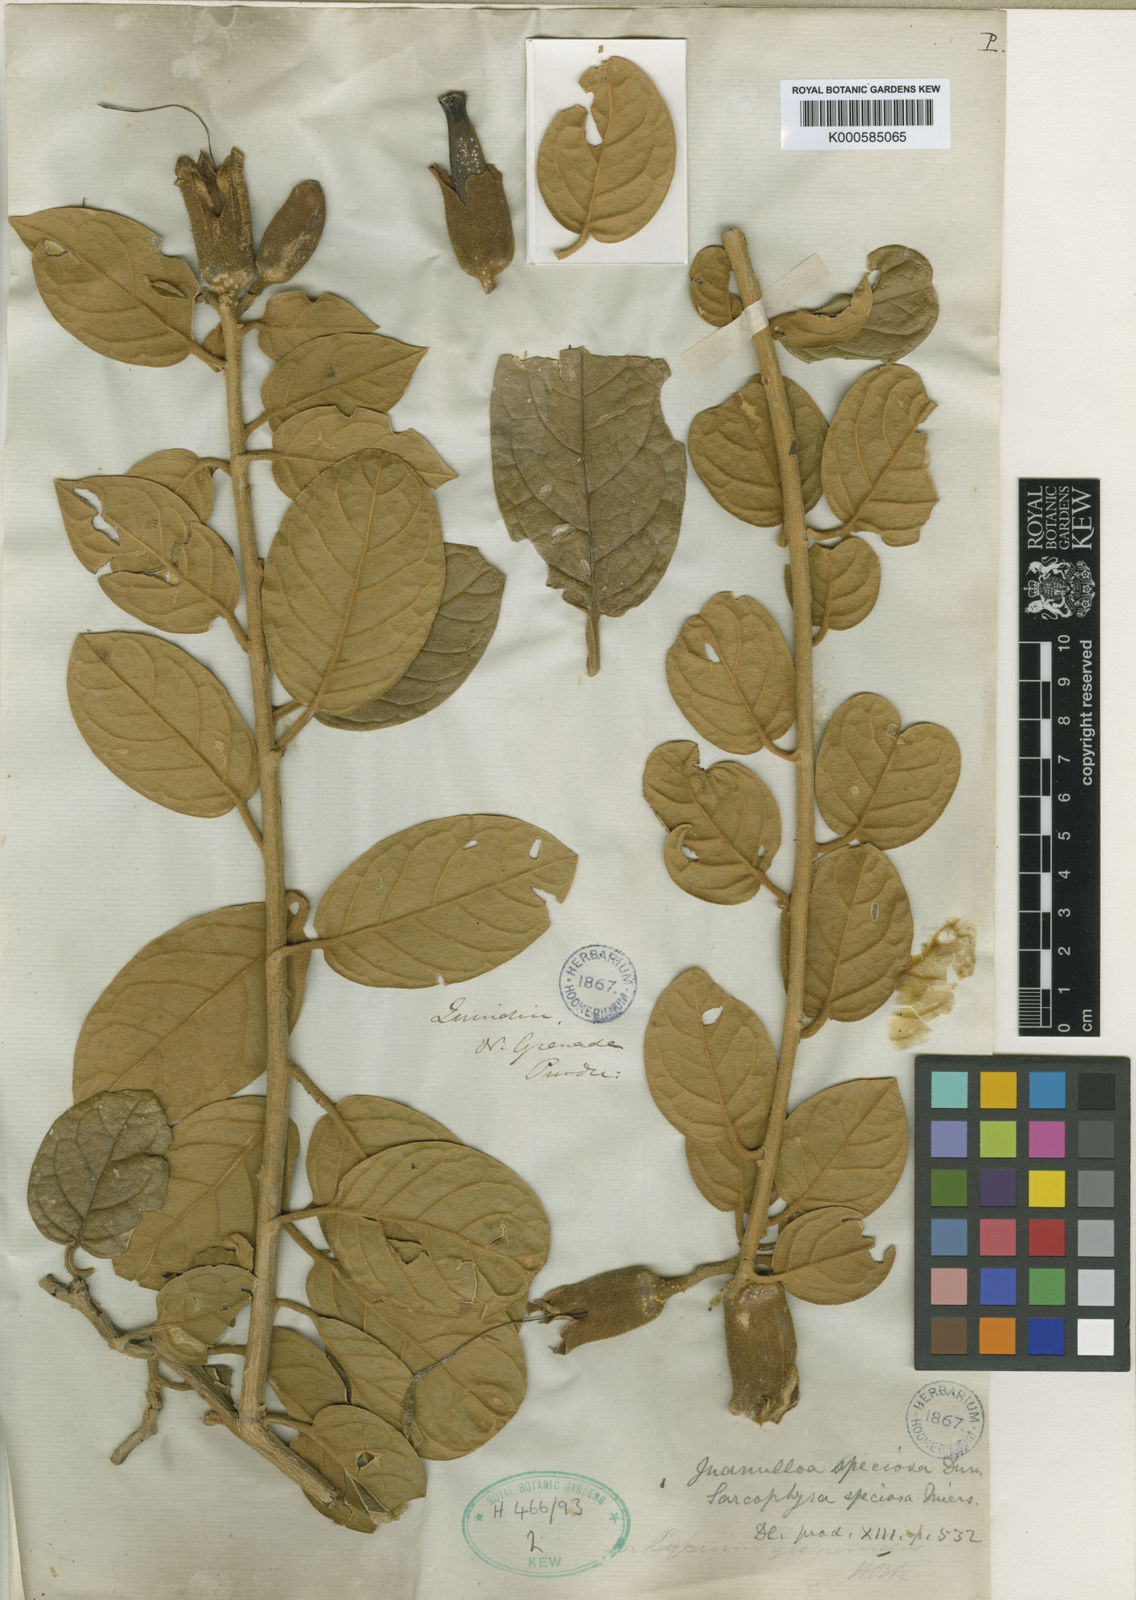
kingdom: Plantae
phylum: Tracheophyta
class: Magnoliopsida
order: Solanales
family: Solanaceae
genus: Juanulloa
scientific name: Juanulloa speciosa
